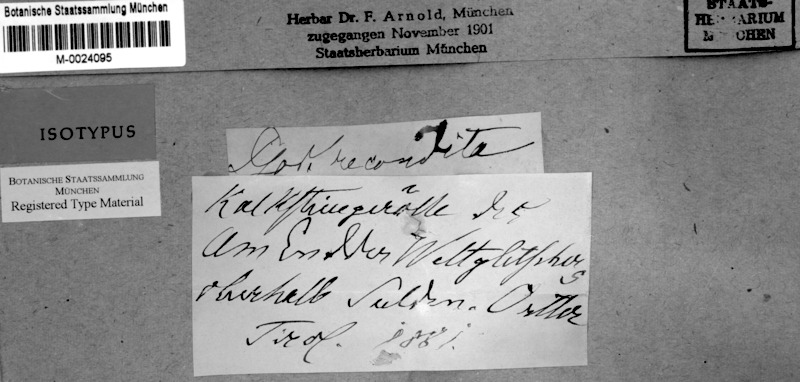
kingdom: Fungi
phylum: Ascomycota
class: Lichinomycetes
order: Lichinales
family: Lichinaceae
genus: Pyrenocarpon
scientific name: Pyrenocarpon Thelochroa montinii
